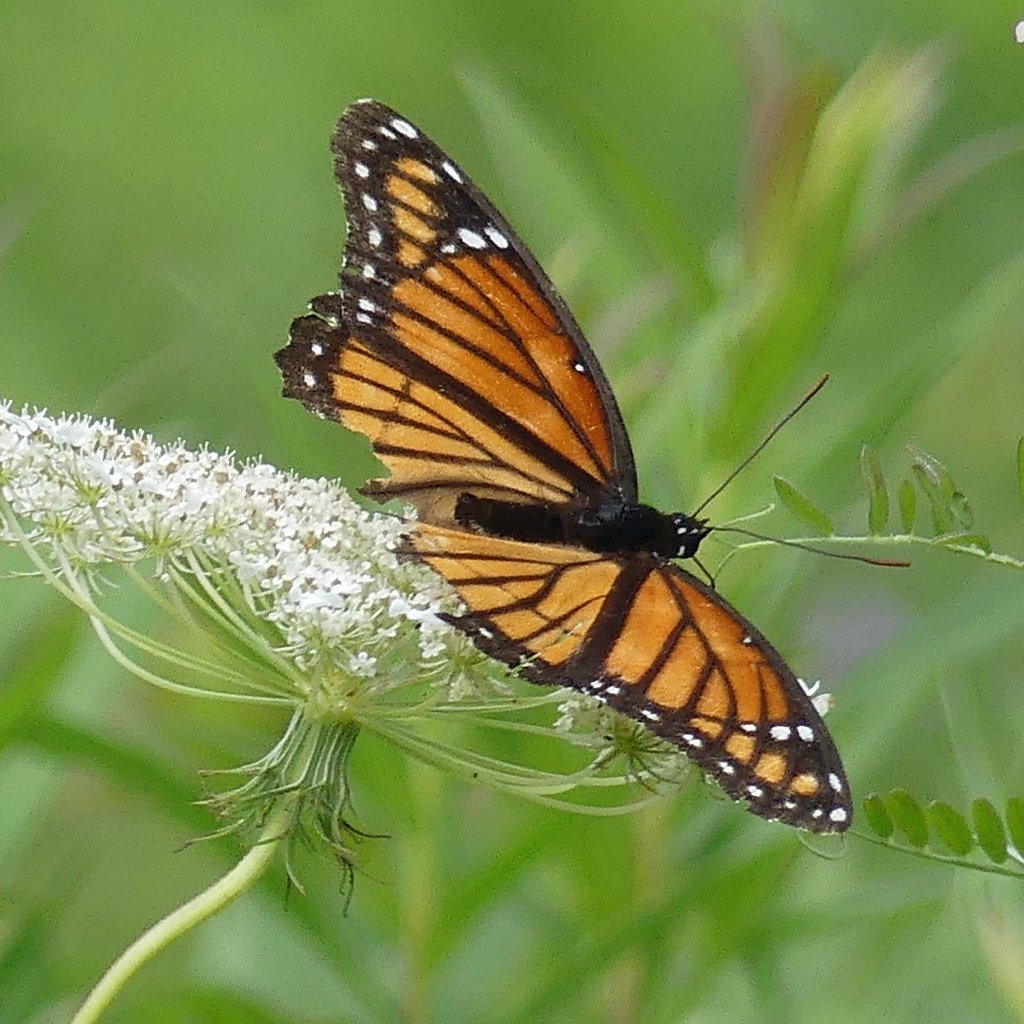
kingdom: Animalia
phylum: Arthropoda
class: Insecta
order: Lepidoptera
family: Nymphalidae
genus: Limenitis
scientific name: Limenitis archippus
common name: Viceroy
